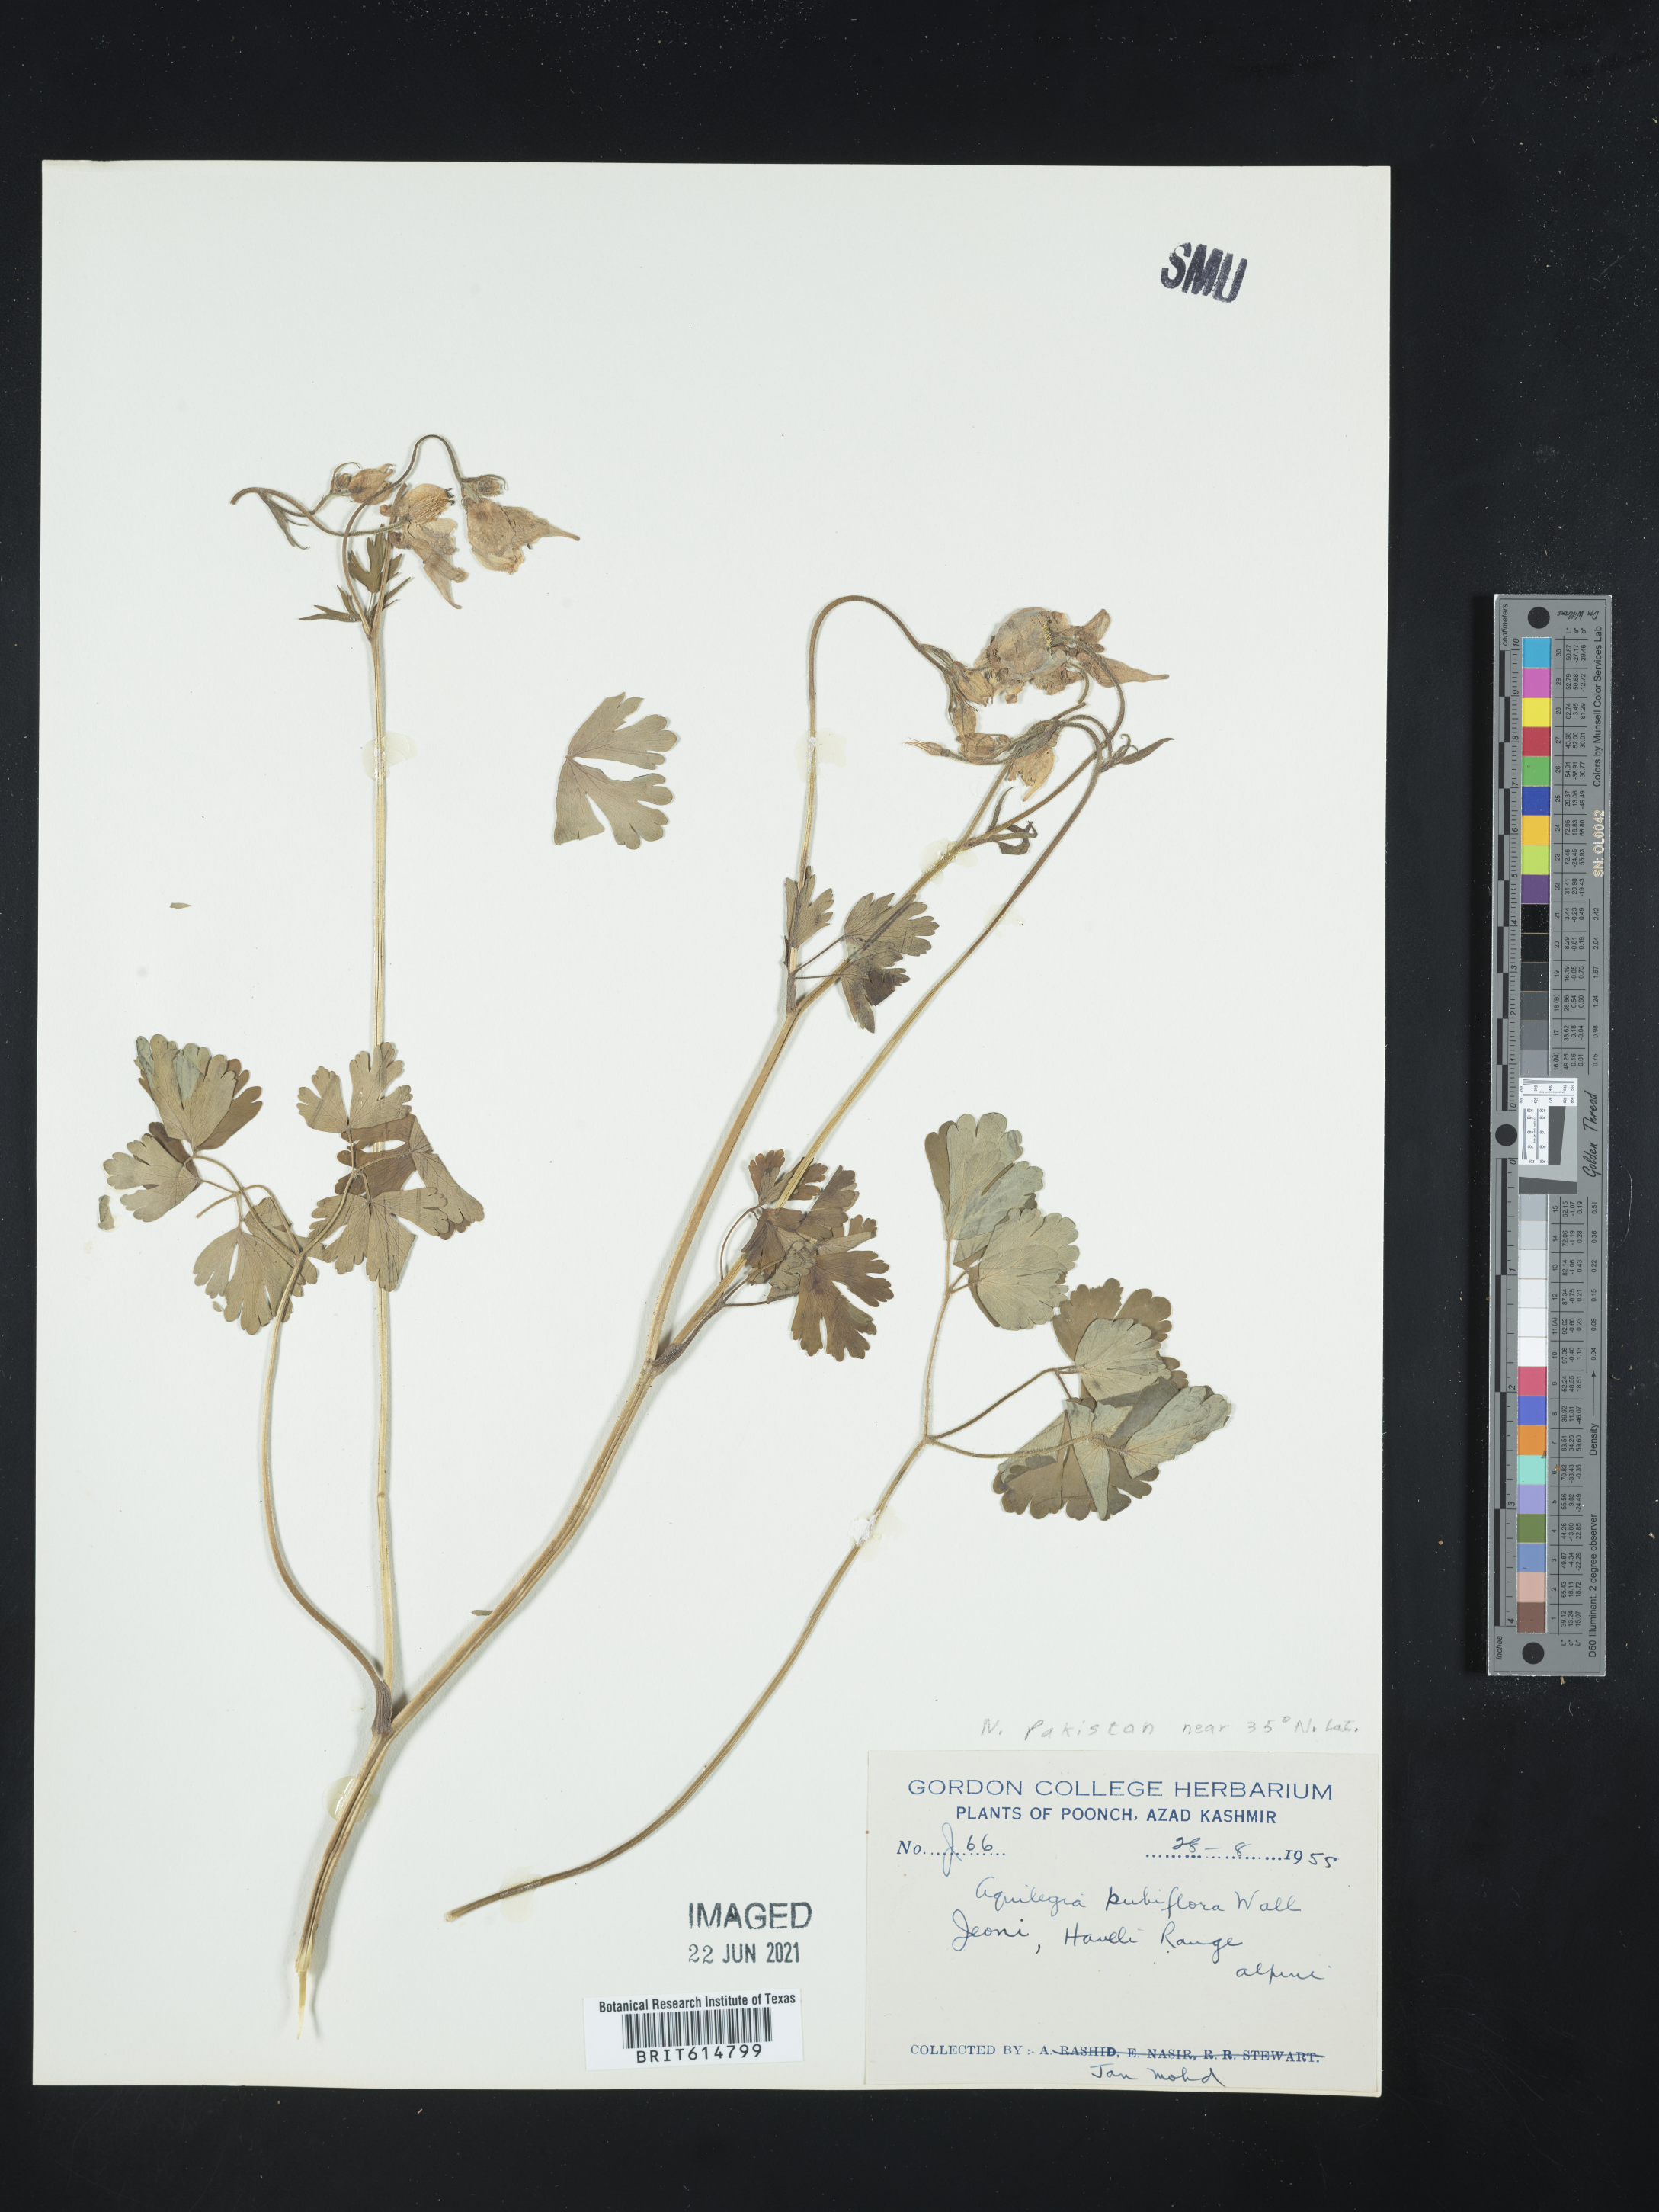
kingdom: Plantae
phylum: Tracheophyta
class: Magnoliopsida
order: Ranunculales
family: Ranunculaceae
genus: Aquilegia
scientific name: Aquilegia pubiflora
